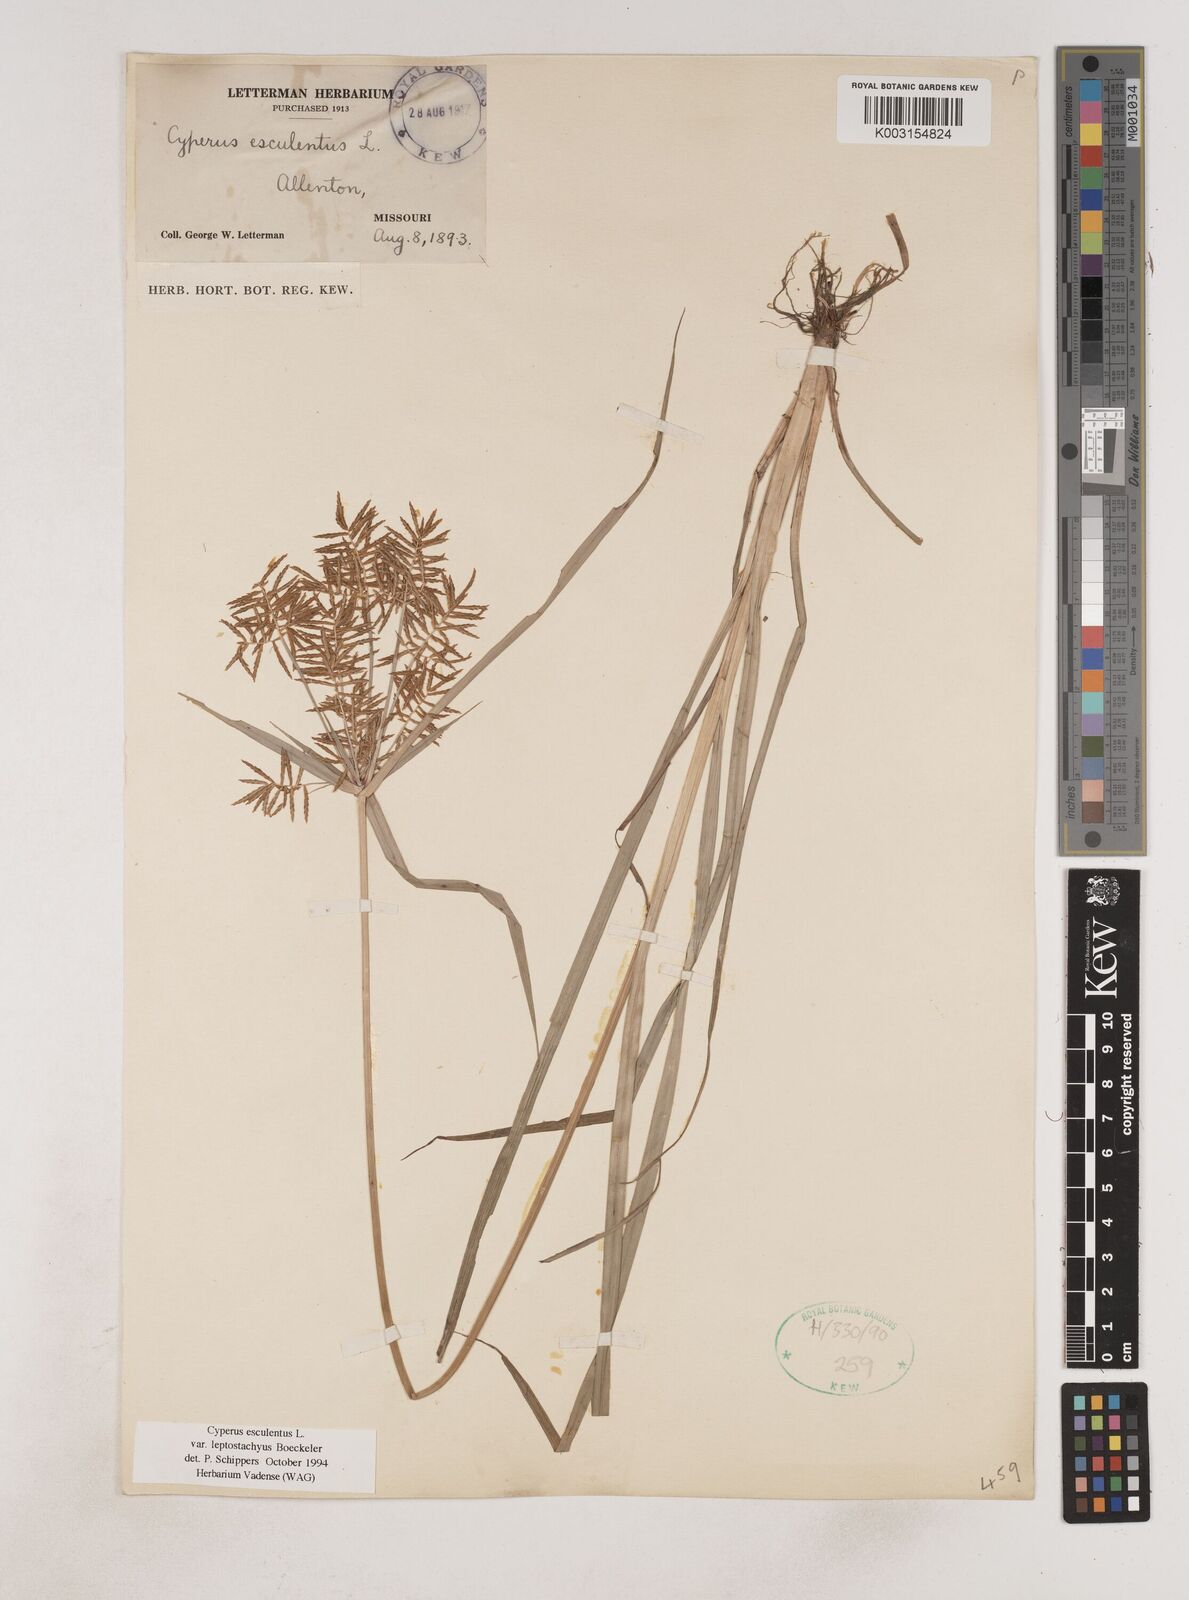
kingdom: Plantae
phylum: Tracheophyta
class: Liliopsida
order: Poales
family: Cyperaceae
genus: Cyperus
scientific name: Cyperus esculentus
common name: Yellow nutsedge
